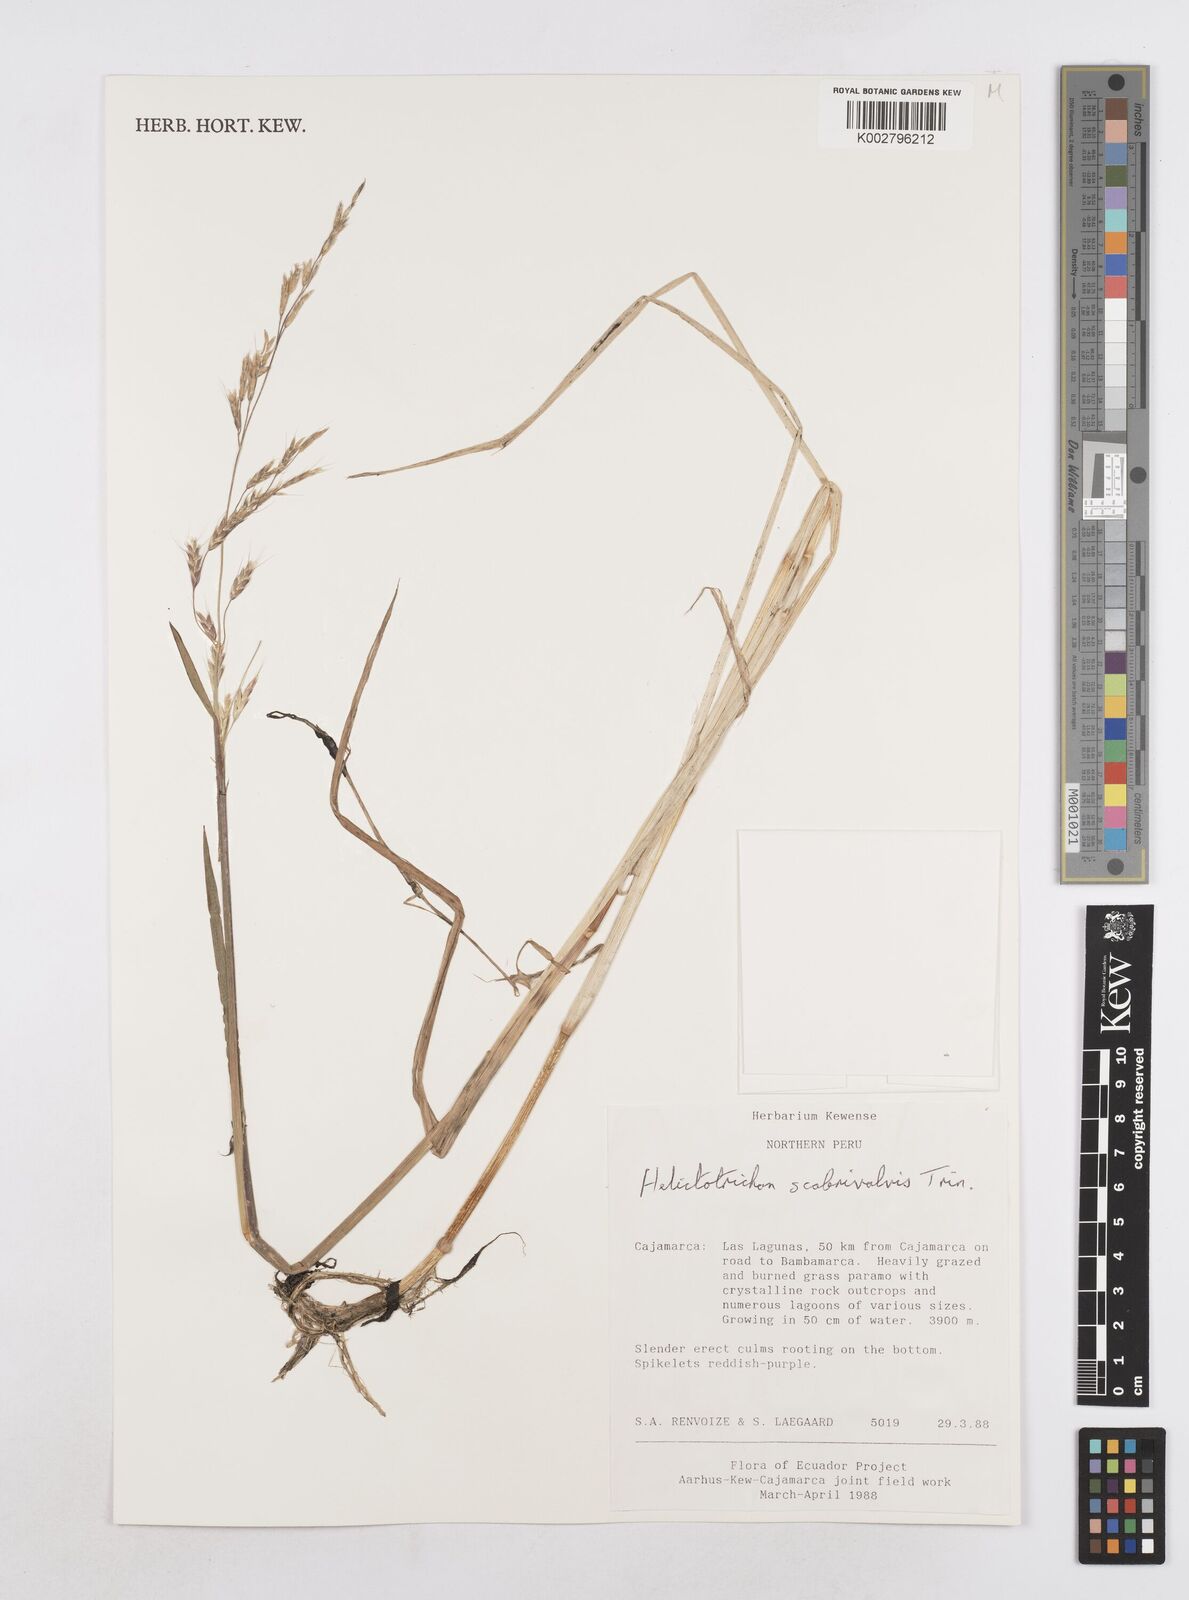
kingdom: Plantae
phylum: Tracheophyta
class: Liliopsida
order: Poales
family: Poaceae
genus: Amphibromus
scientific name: Amphibromus scabrivalvis
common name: Swamp wallaby grass
